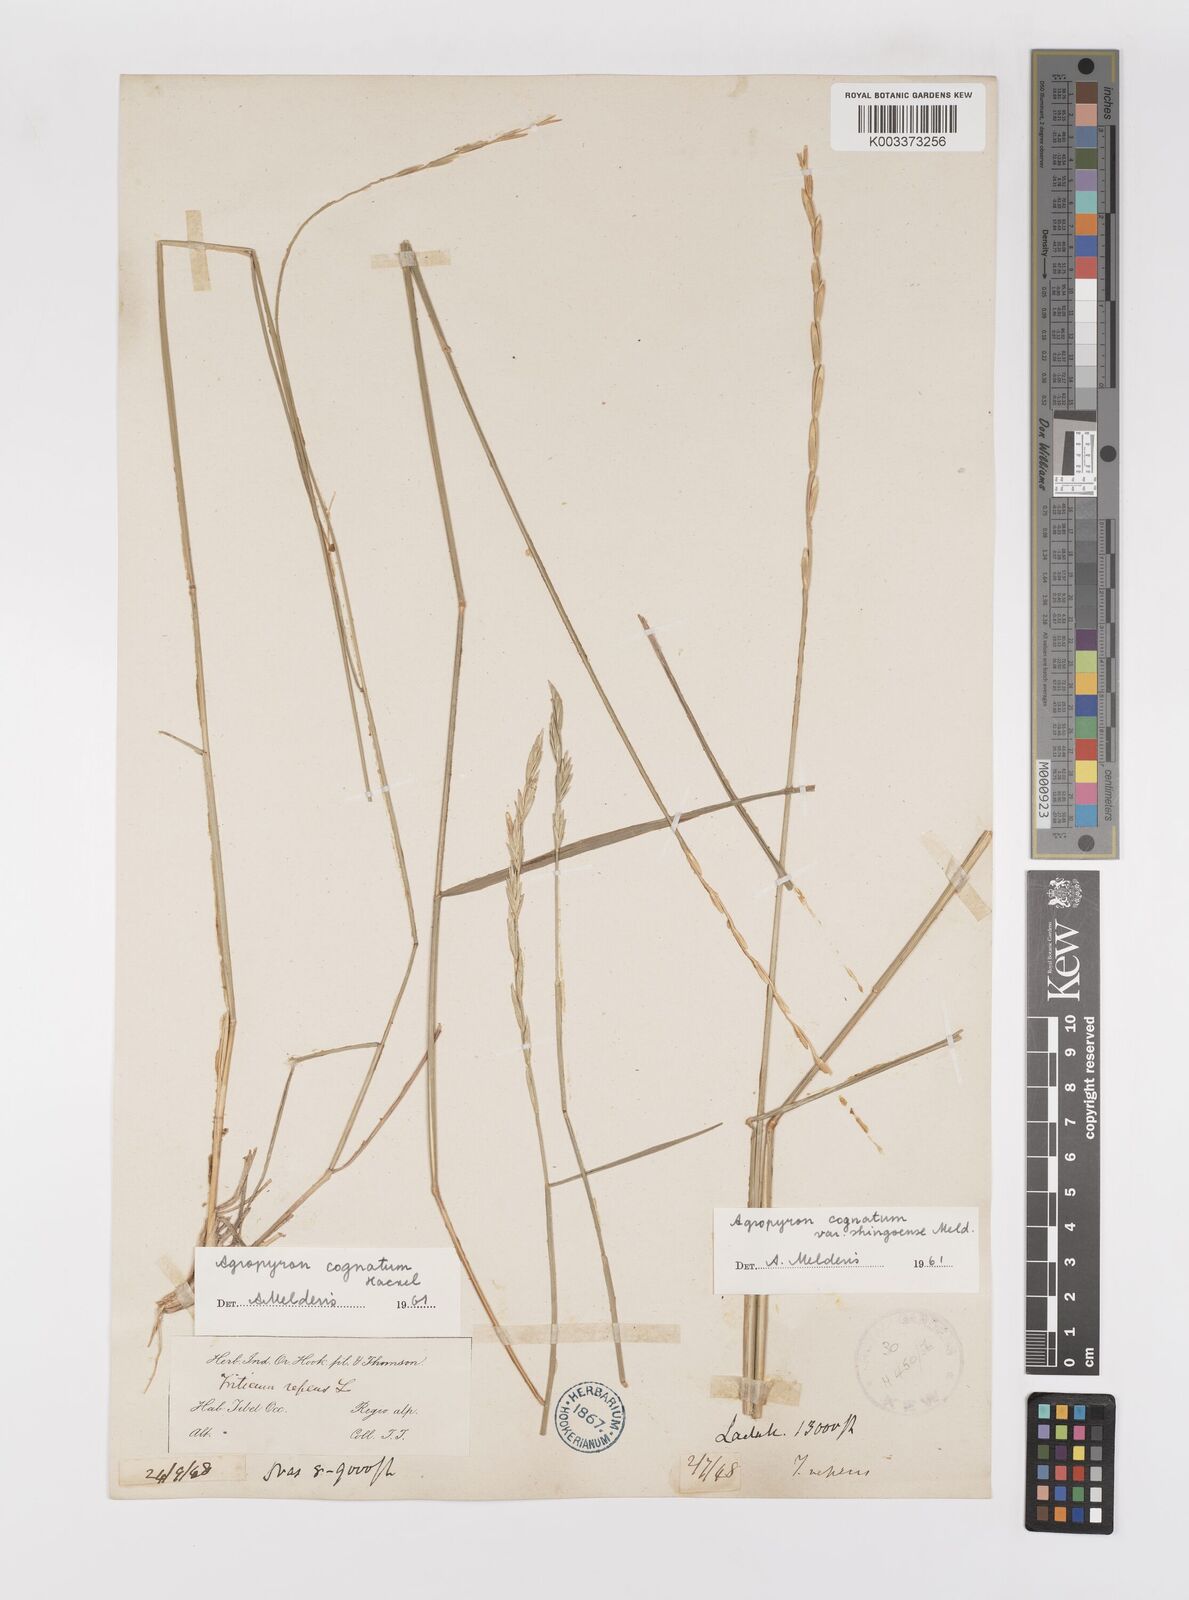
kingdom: Plantae
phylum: Tracheophyta
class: Liliopsida
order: Poales
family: Poaceae
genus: Pseudoroegneria
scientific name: Pseudoroegneria cognata
